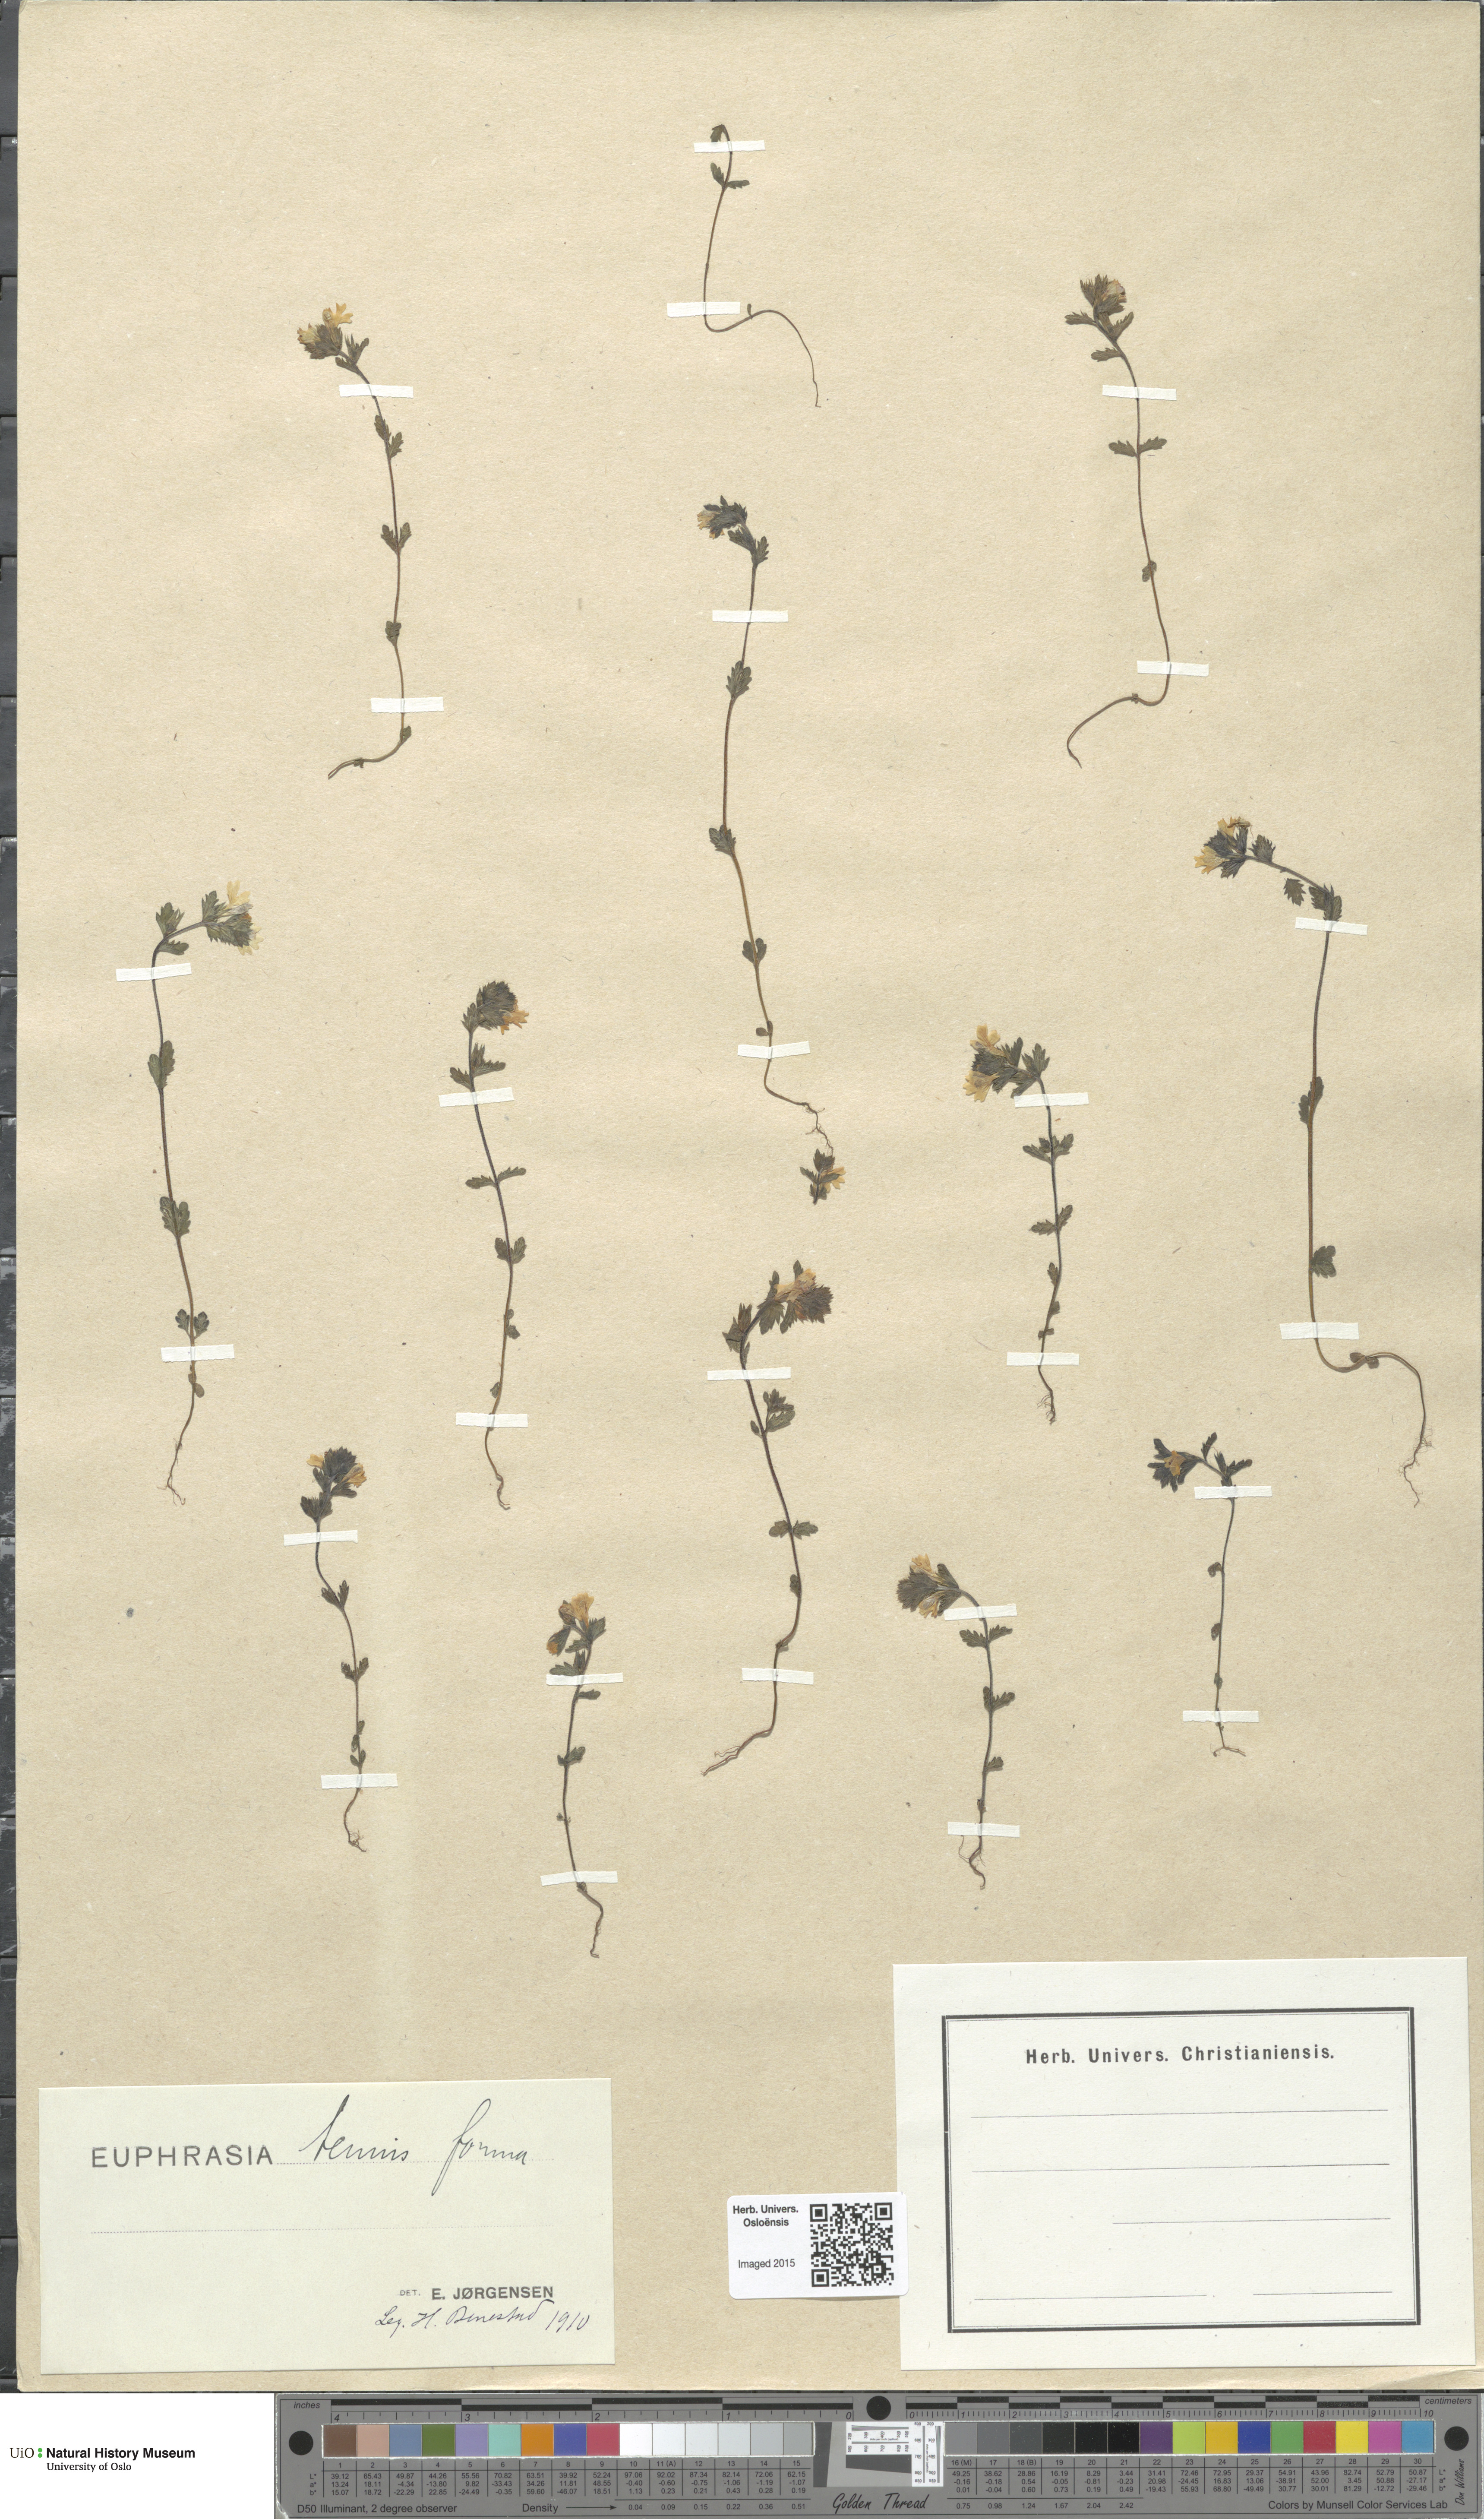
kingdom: Plantae
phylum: Tracheophyta
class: Magnoliopsida
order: Lamiales
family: Orobanchaceae
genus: Euphrasia
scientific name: Euphrasia vernalis
